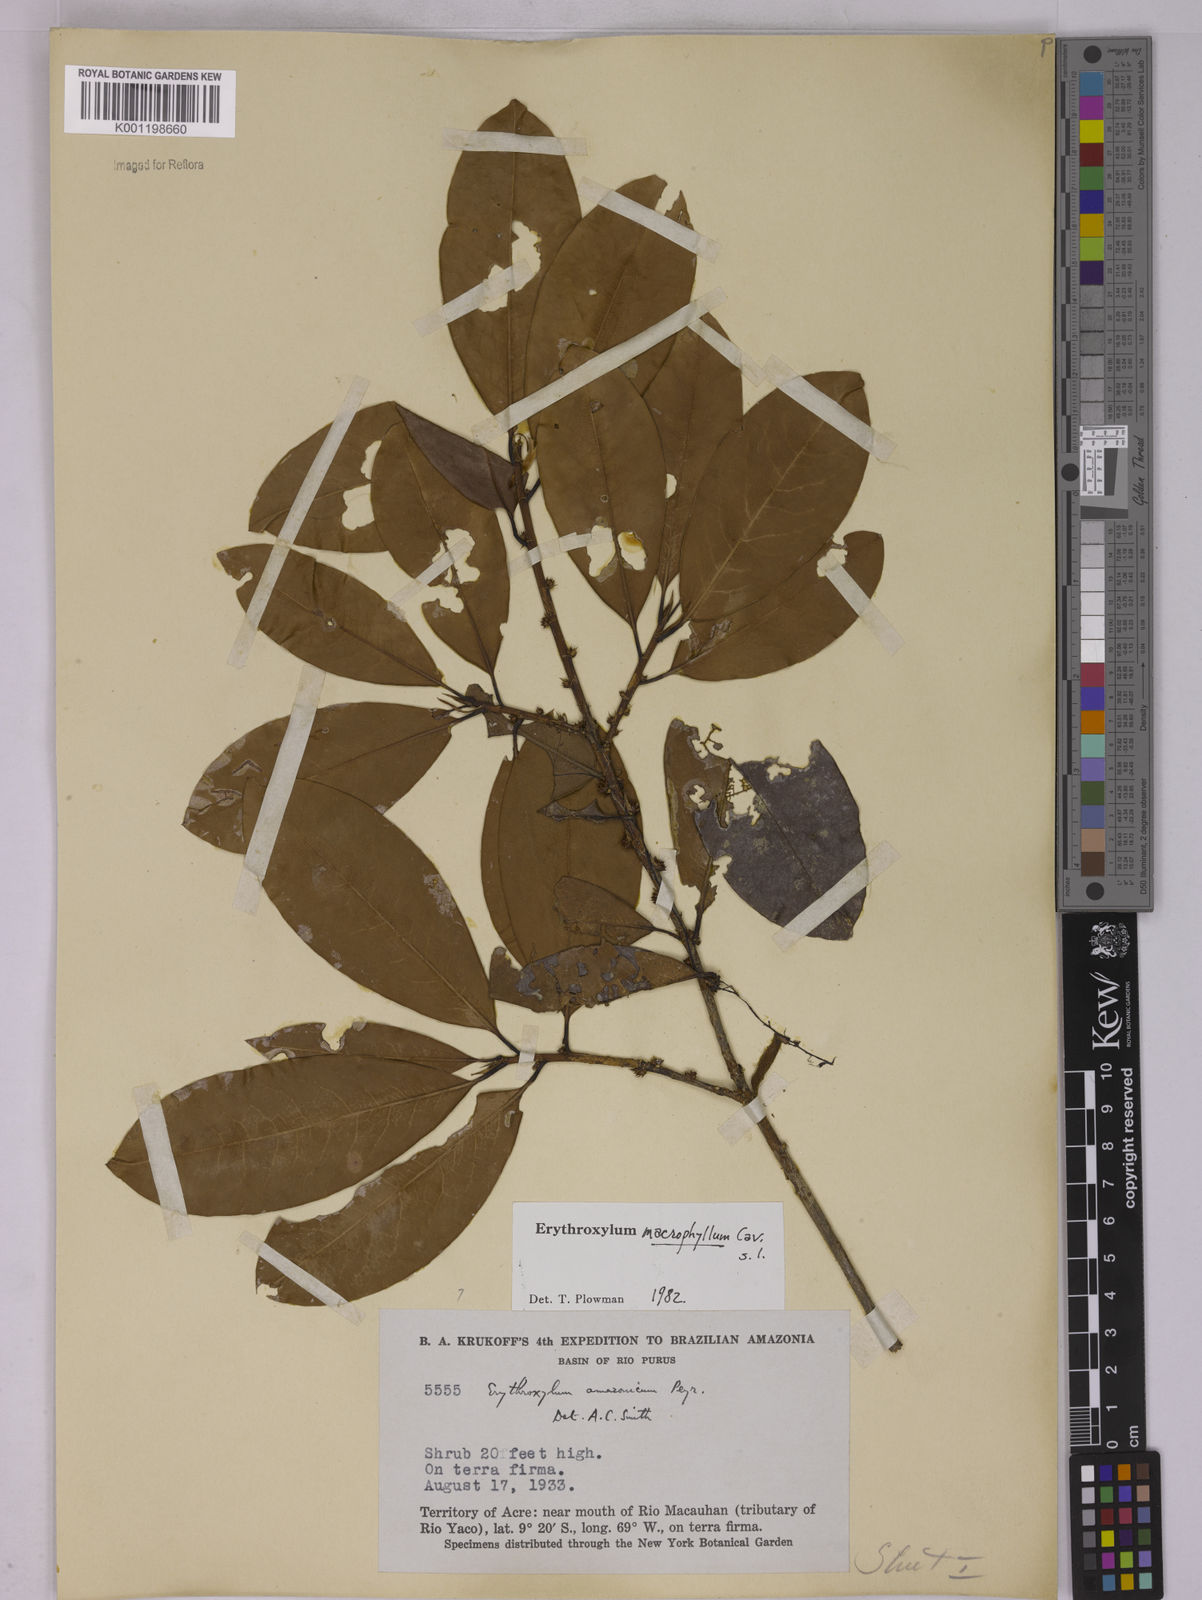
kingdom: Plantae
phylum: Tracheophyta
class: Magnoliopsida
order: Malpighiales
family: Erythroxylaceae
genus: Erythroxylum
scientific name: Erythroxylum macrophyllum
